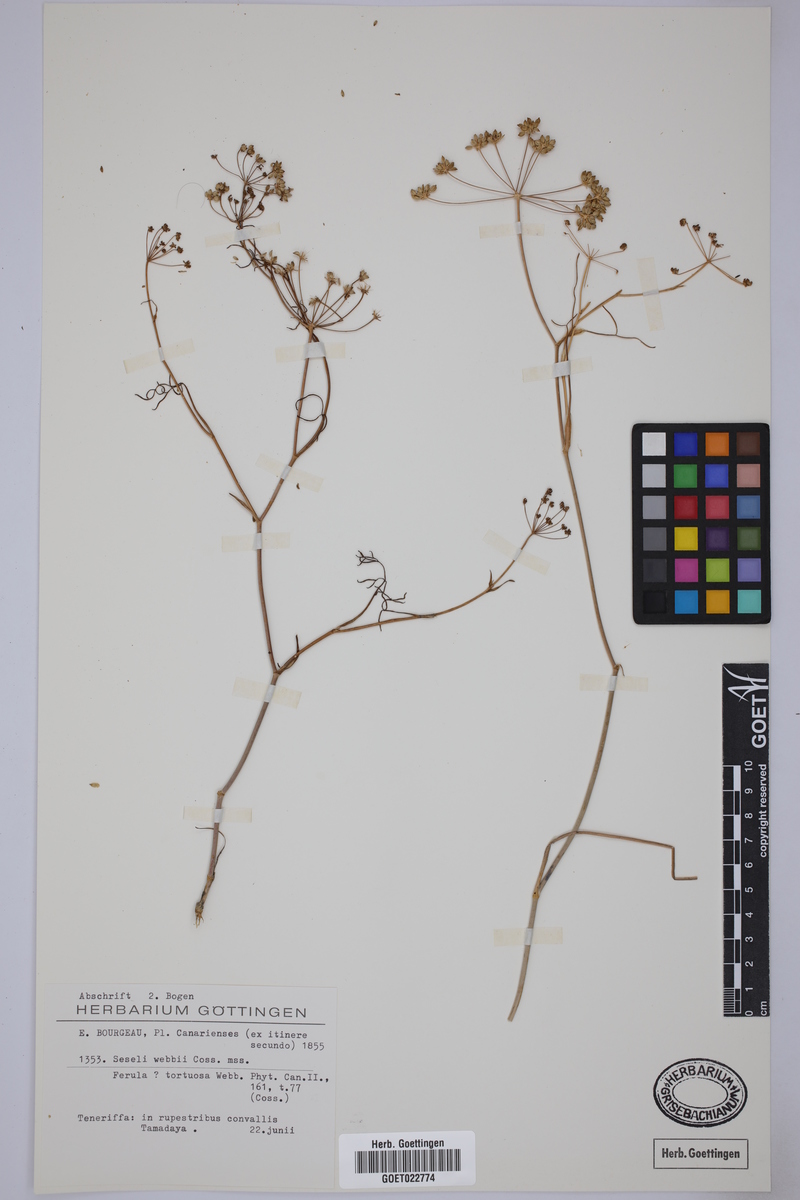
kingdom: Plantae
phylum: Tracheophyta
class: Magnoliopsida
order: Apiales
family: Apiaceae
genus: Rutheopsis
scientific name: Rutheopsis tortuosa
